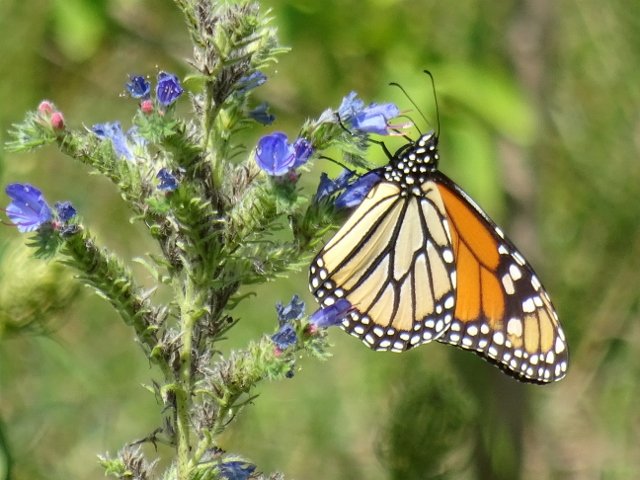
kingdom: Animalia
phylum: Arthropoda
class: Insecta
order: Lepidoptera
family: Nymphalidae
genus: Danaus
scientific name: Danaus plexippus
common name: Monarch
